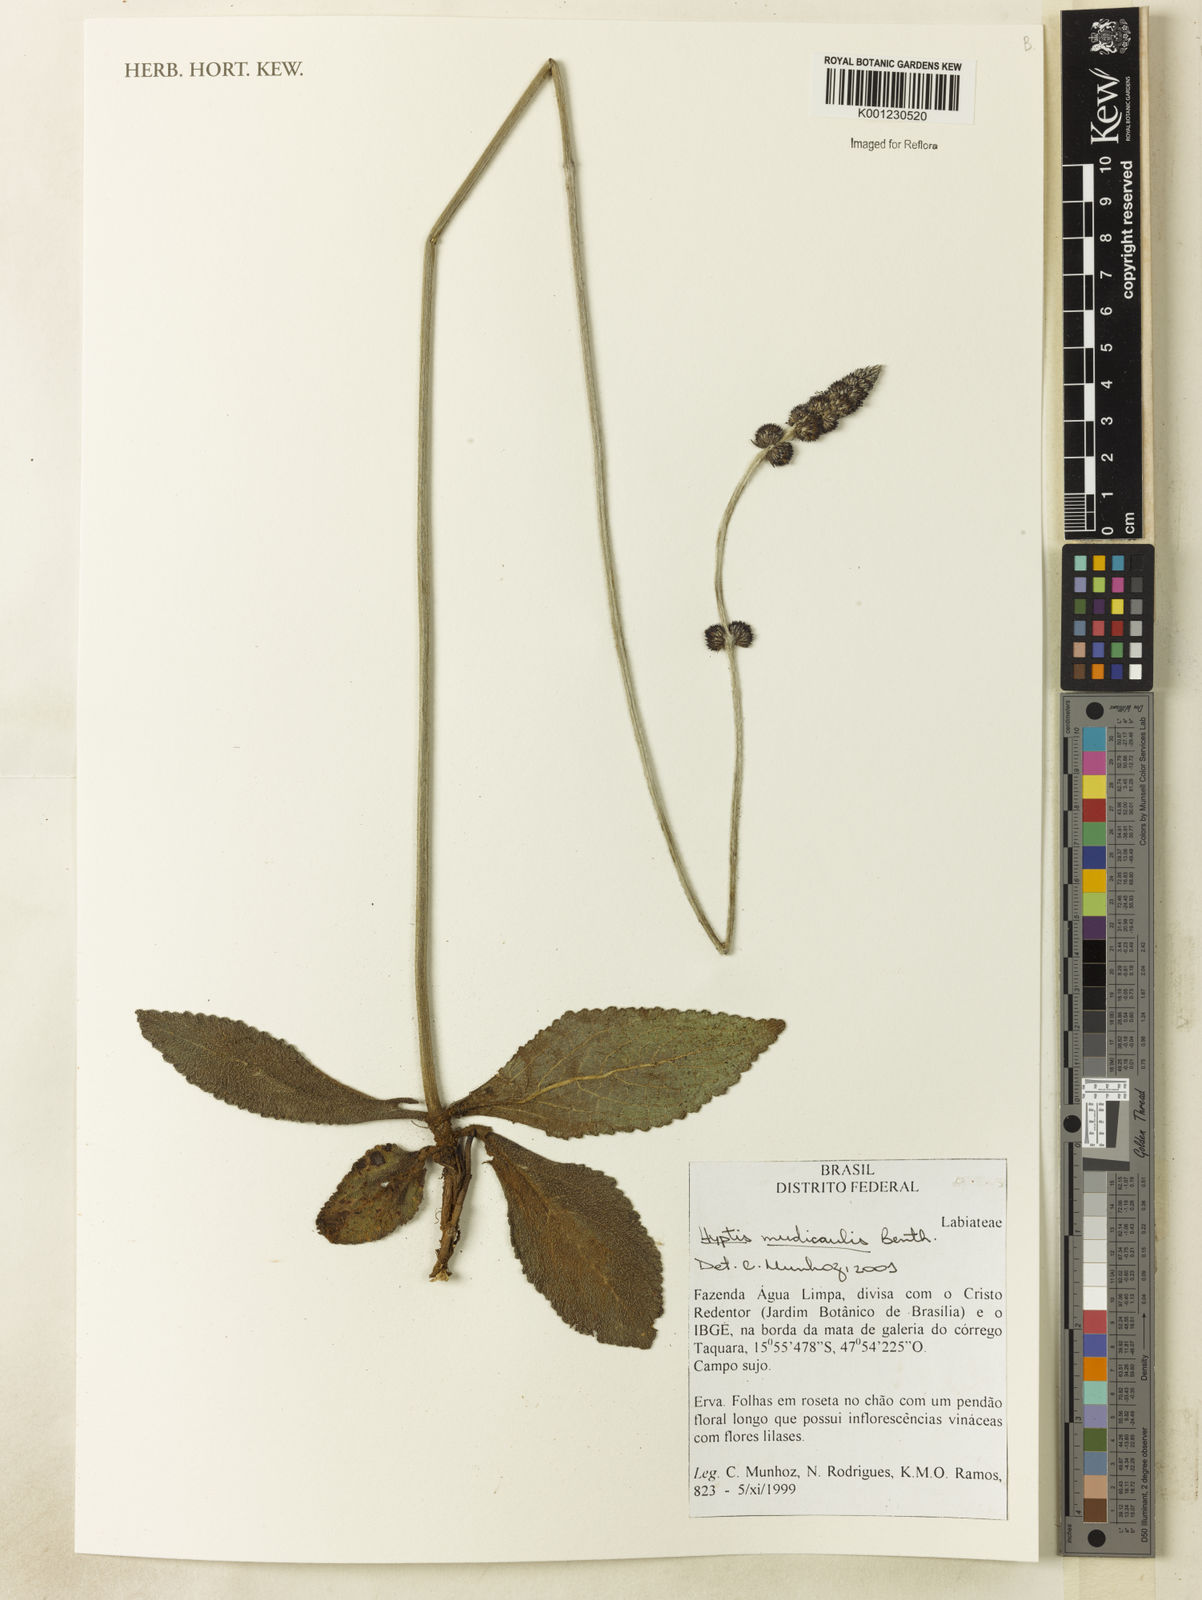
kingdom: Plantae
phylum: Tracheophyta
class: Magnoliopsida
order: Lamiales
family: Lamiaceae
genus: Hyptis
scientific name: Hyptis nudicaulis
